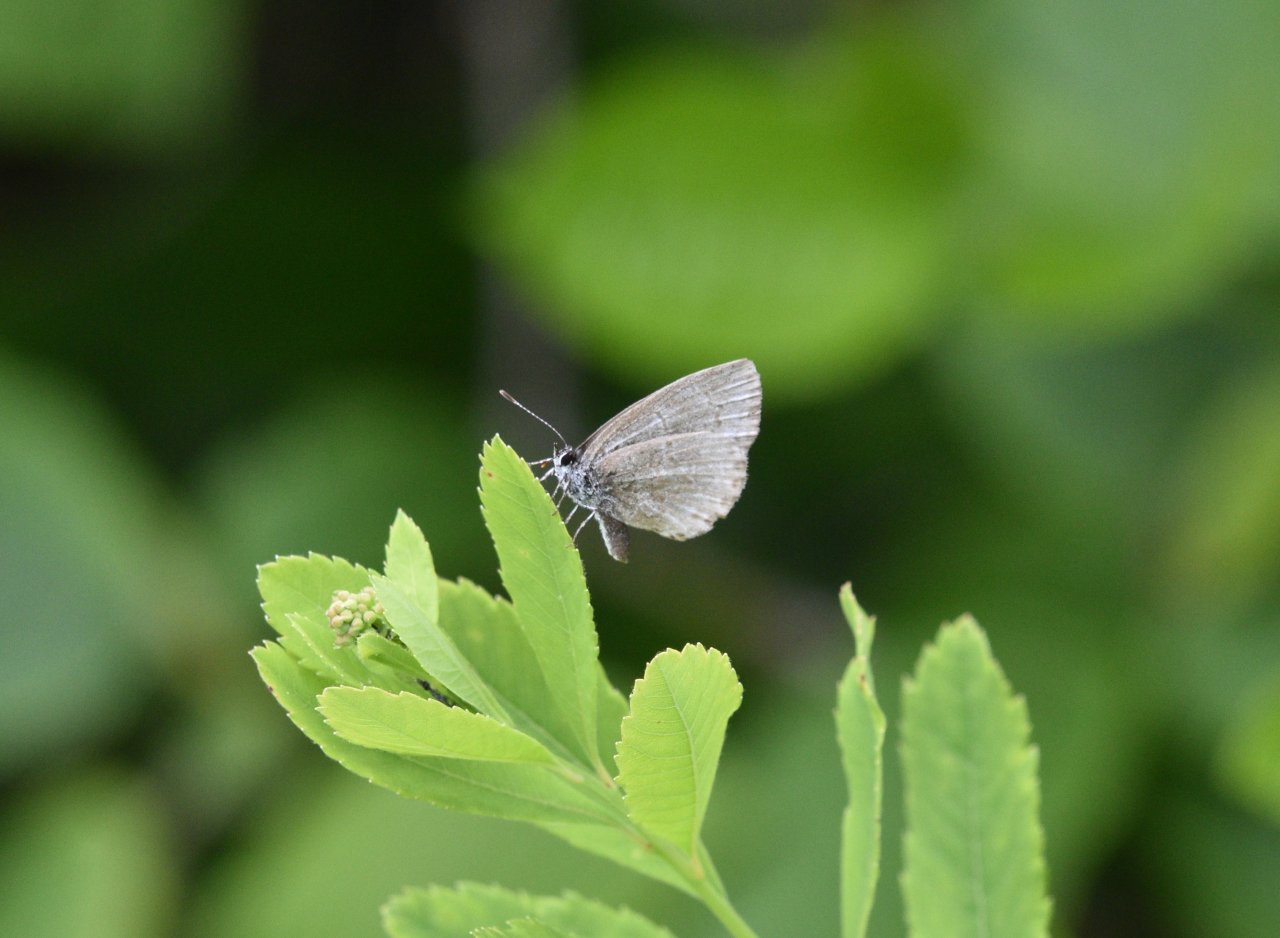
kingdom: Animalia
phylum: Arthropoda
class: Insecta
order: Lepidoptera
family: Lycaenidae
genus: Celastrina
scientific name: Celastrina lucia
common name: Northern Spring Azure
